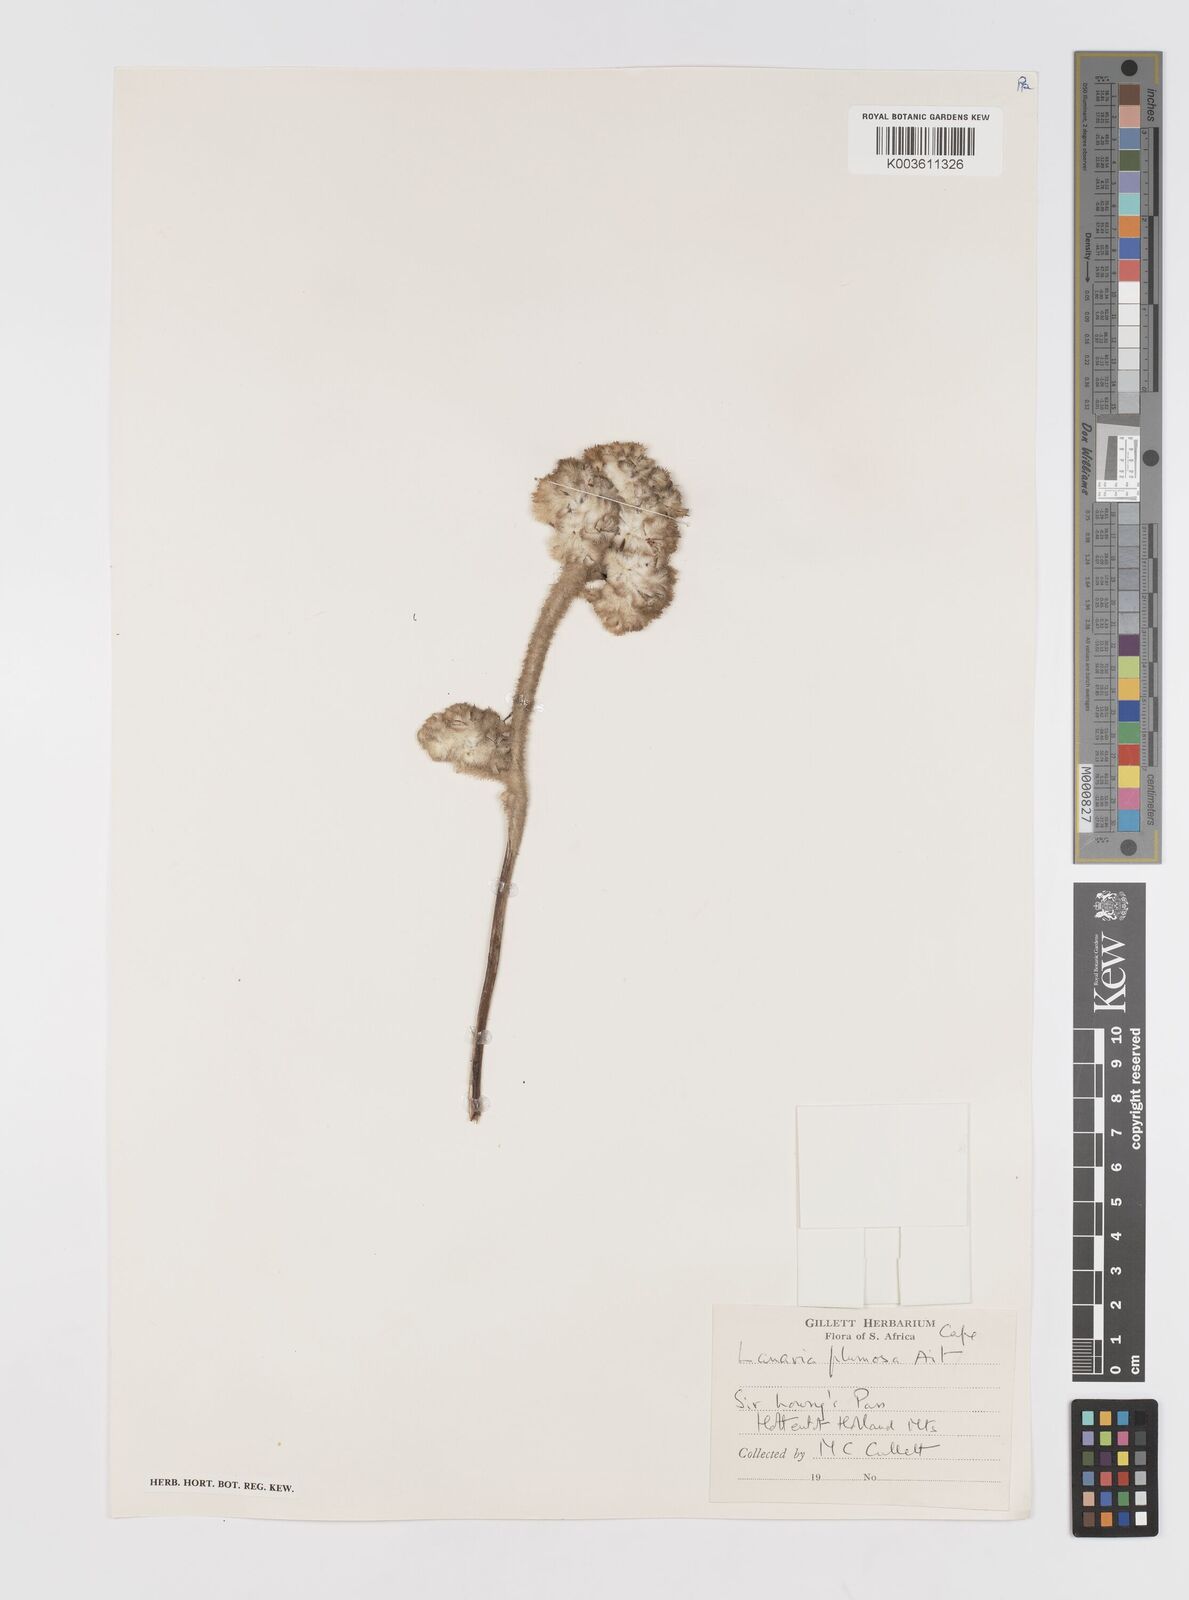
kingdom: Plantae
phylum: Tracheophyta
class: Liliopsida
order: Asparagales
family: Lanariaceae
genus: Lanaria
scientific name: Lanaria lanata
